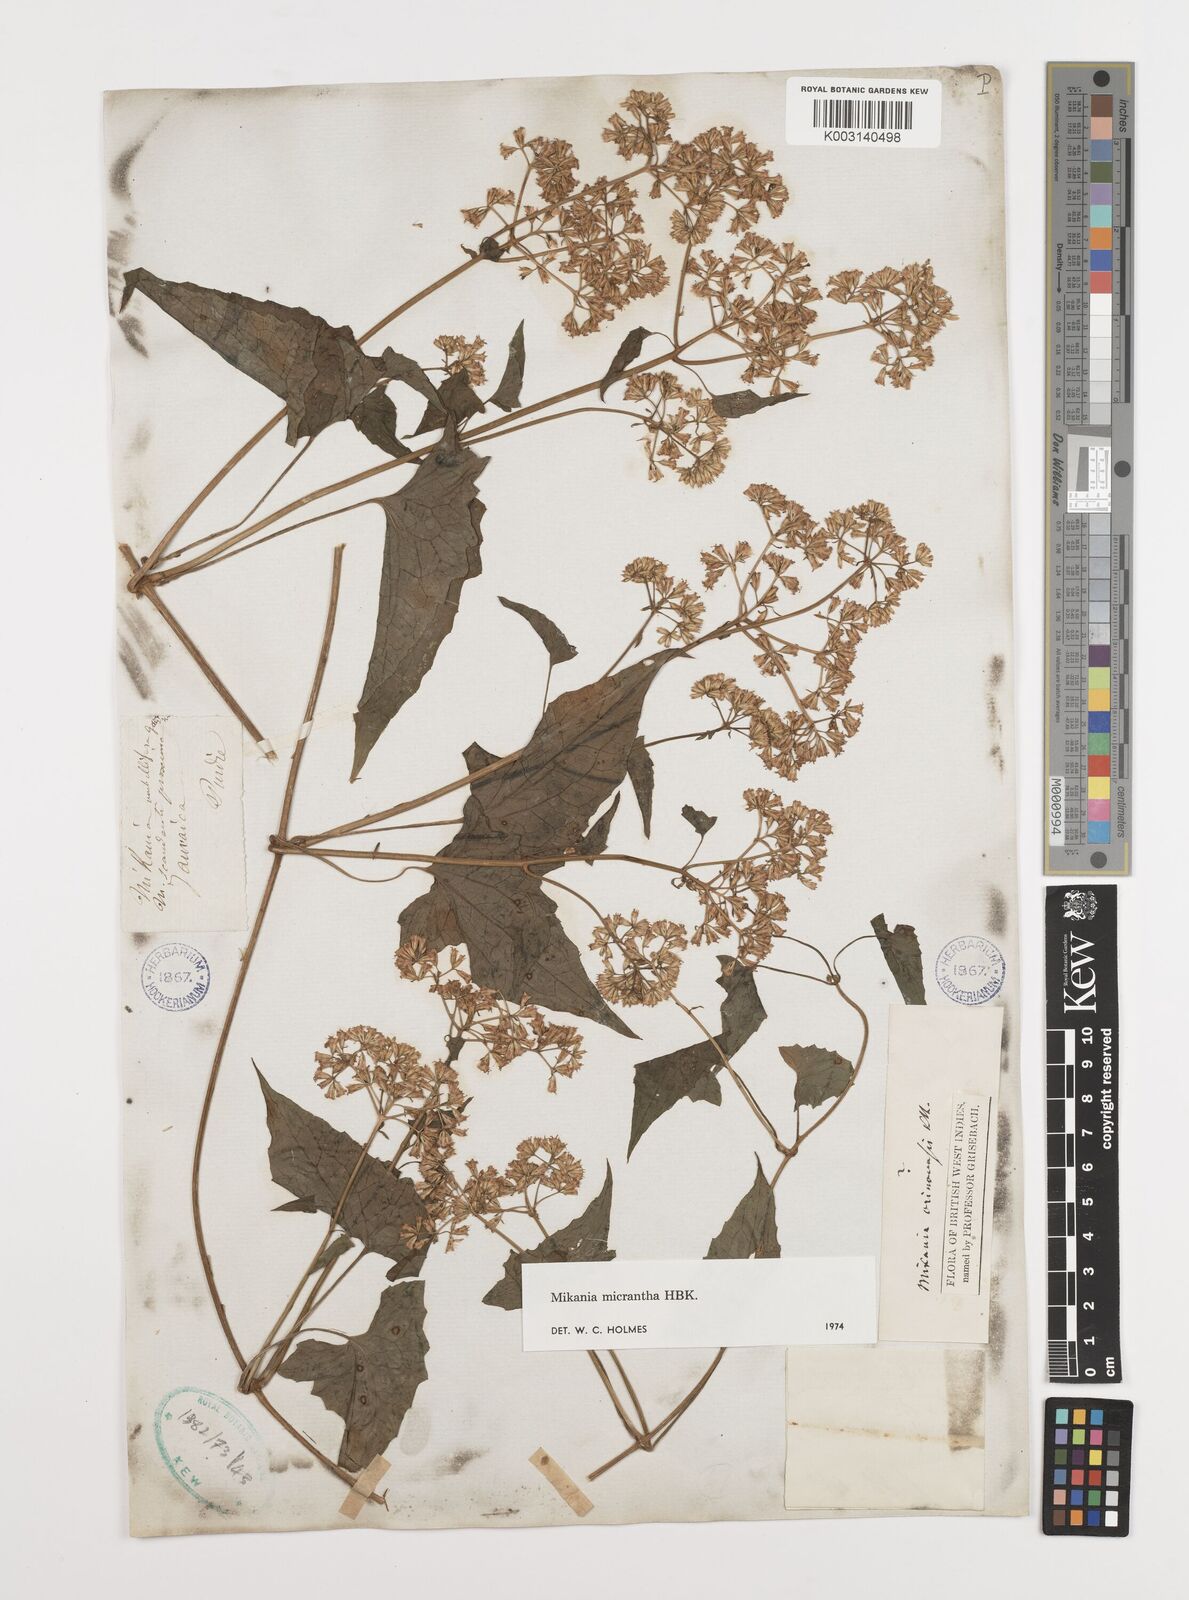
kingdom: Plantae
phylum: Tracheophyta
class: Magnoliopsida
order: Asterales
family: Asteraceae
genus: Mikania
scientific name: Mikania micrantha
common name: Mile-a-minute
